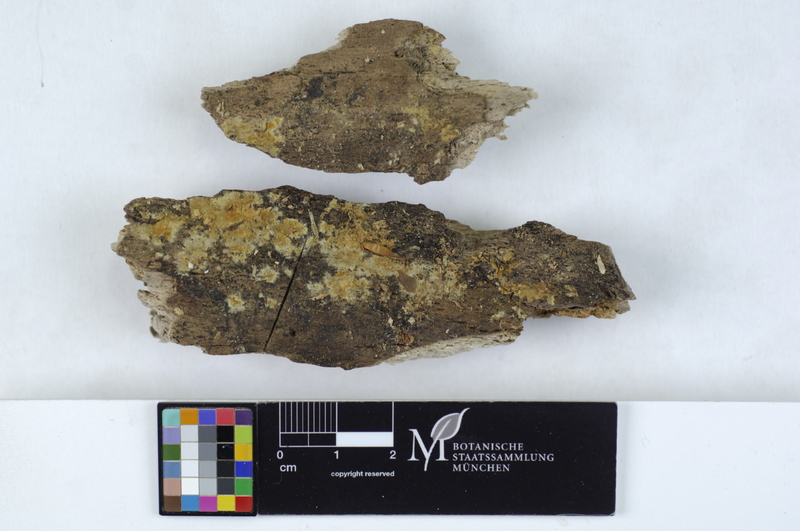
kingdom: Fungi
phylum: Basidiomycota
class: Agaricomycetes
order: Cantharellales
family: Botryobasidiaceae
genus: Botryobasidium
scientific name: Botryobasidium aureum
